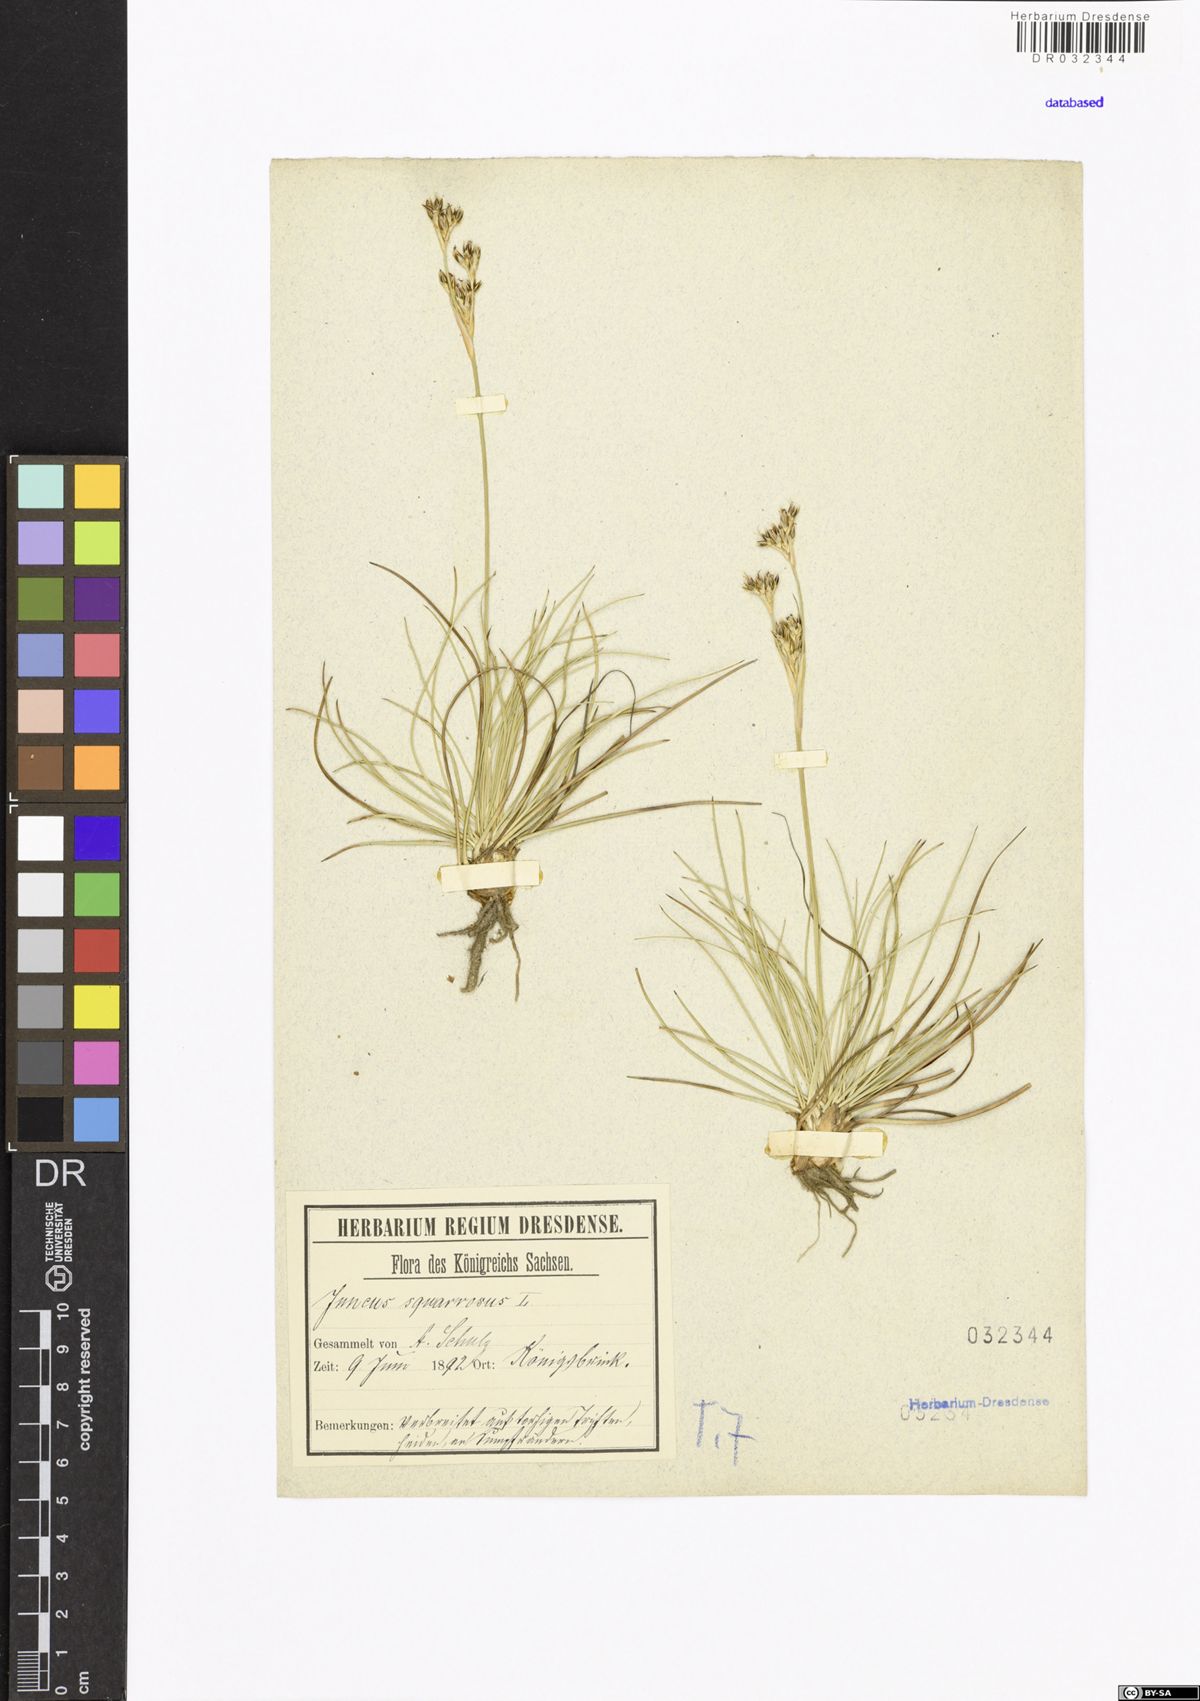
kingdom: Plantae
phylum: Tracheophyta
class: Liliopsida
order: Poales
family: Juncaceae
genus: Juncus
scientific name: Juncus squarrosus
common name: Heath rush
